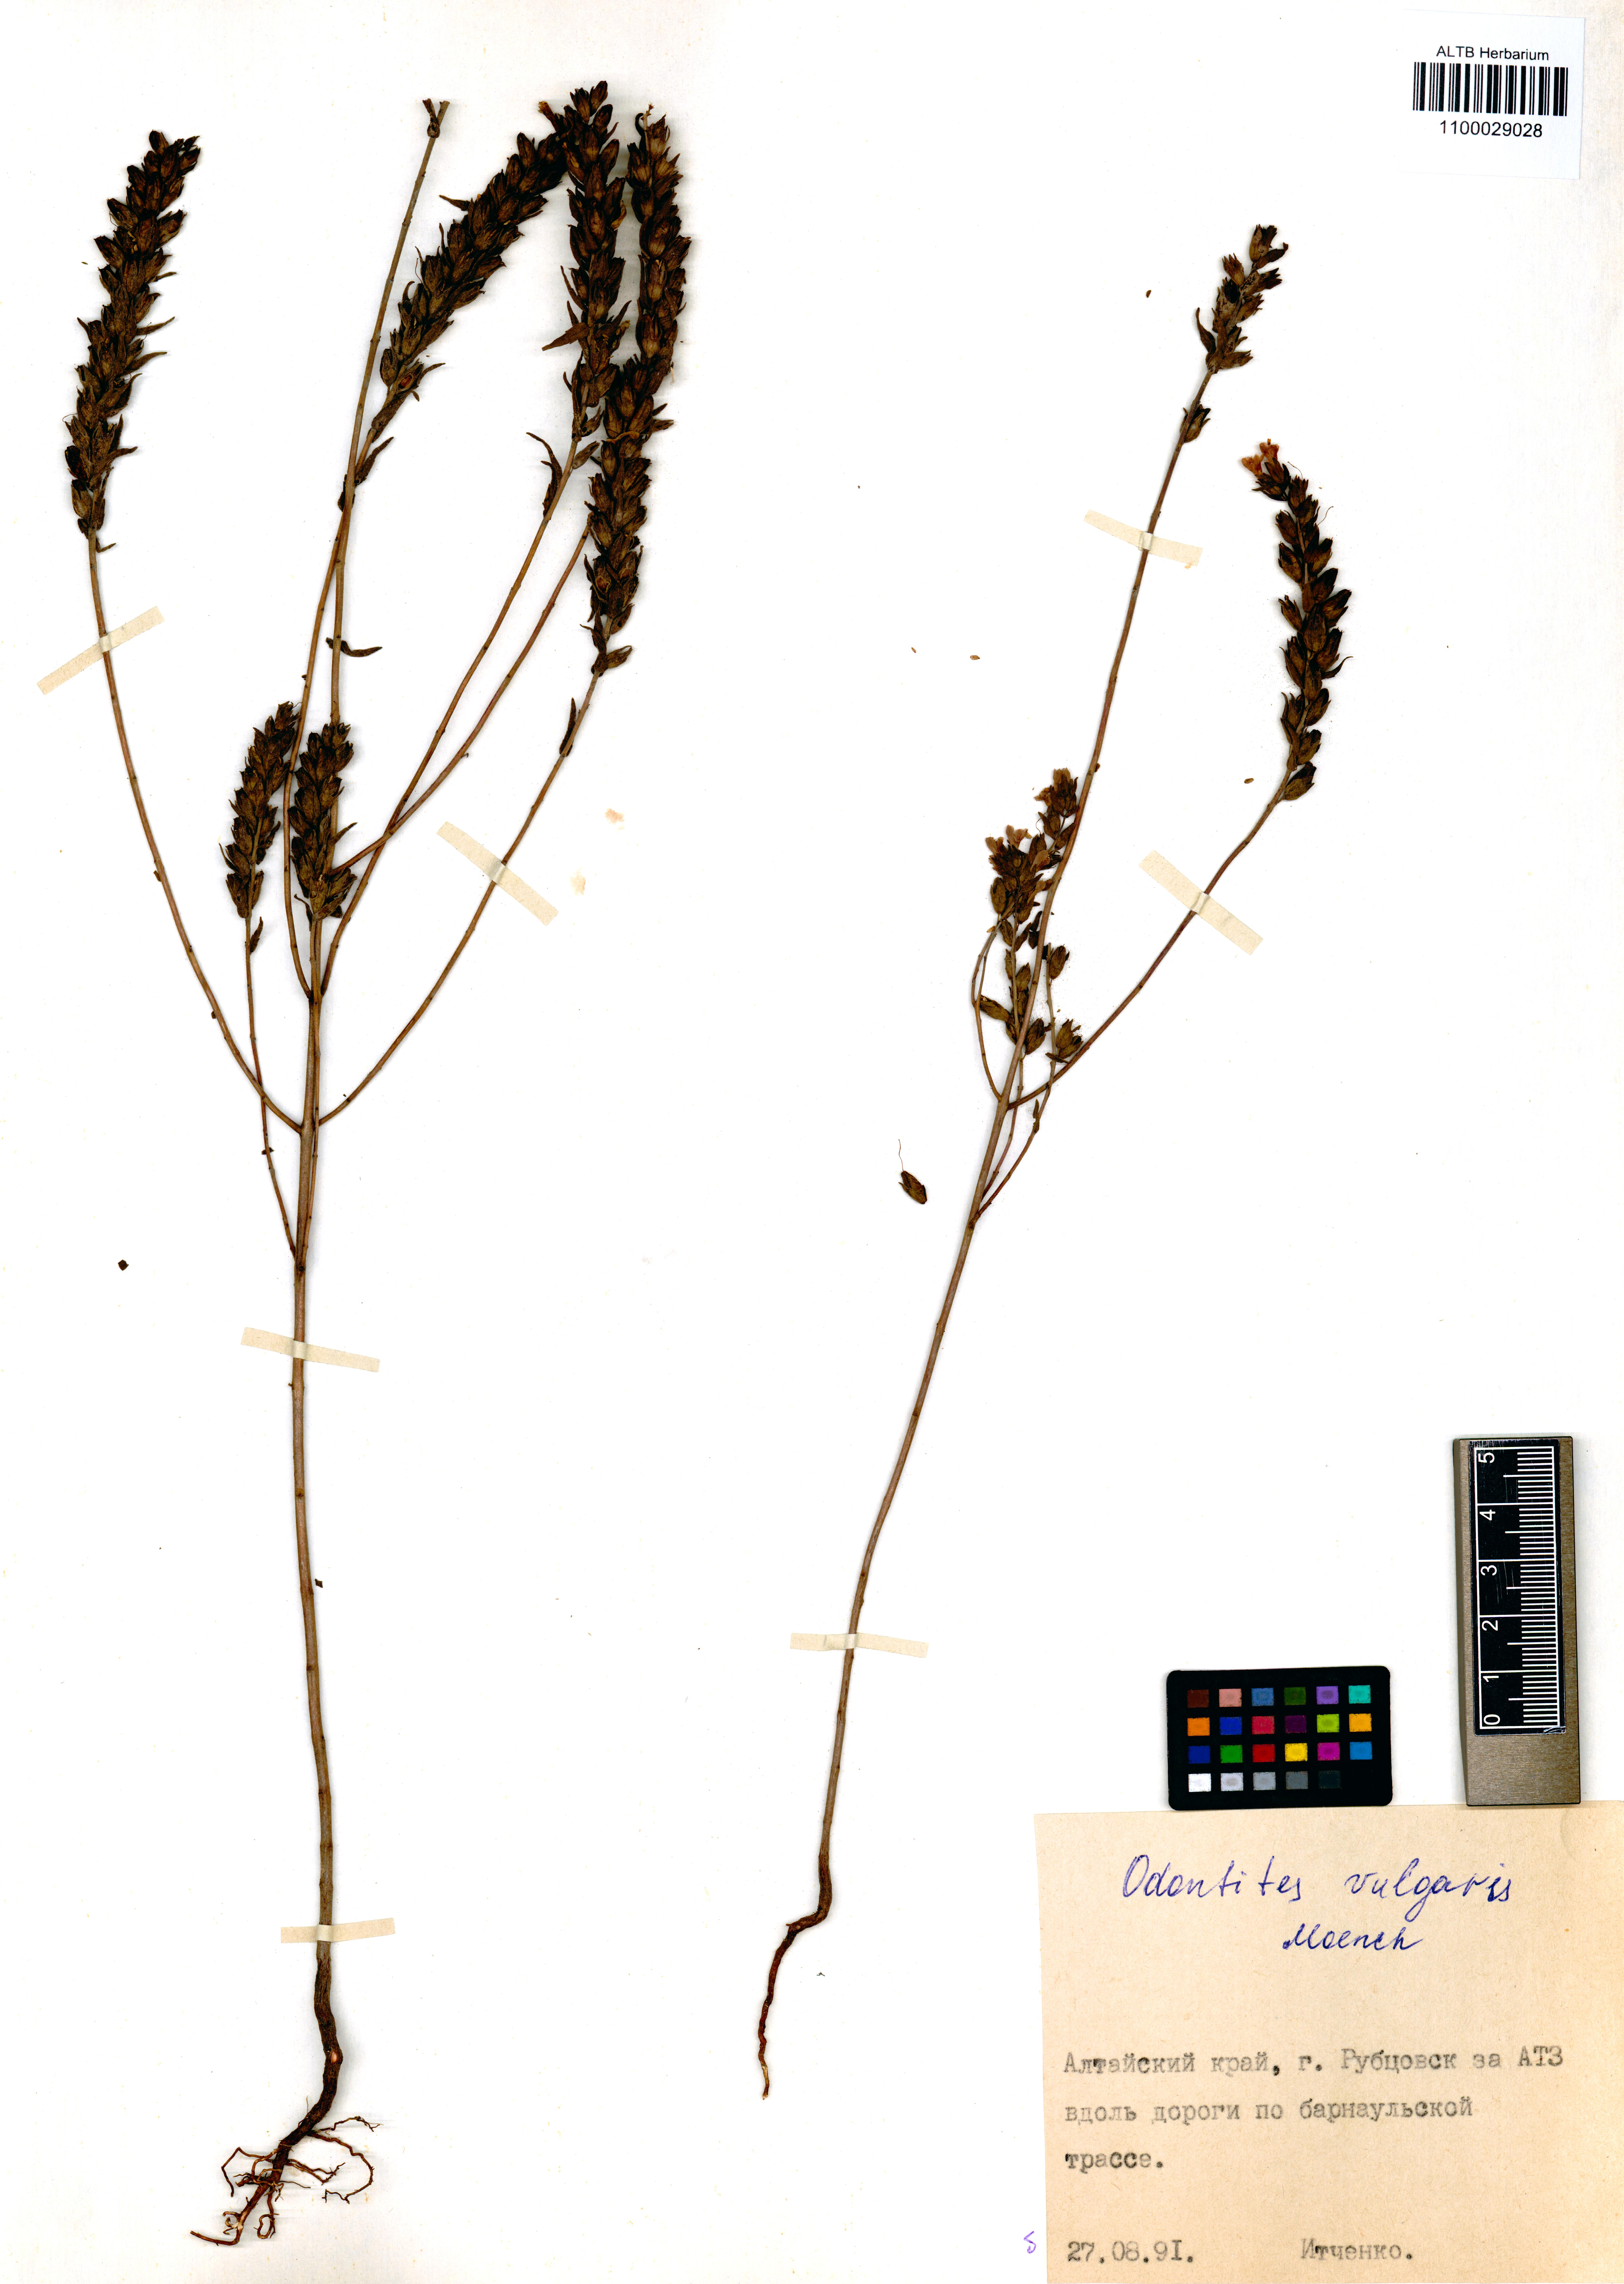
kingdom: Plantae
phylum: Tracheophyta
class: Magnoliopsida
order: Lamiales
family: Orobanchaceae
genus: Odontites
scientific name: Odontites vulgaris
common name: Broomrape
